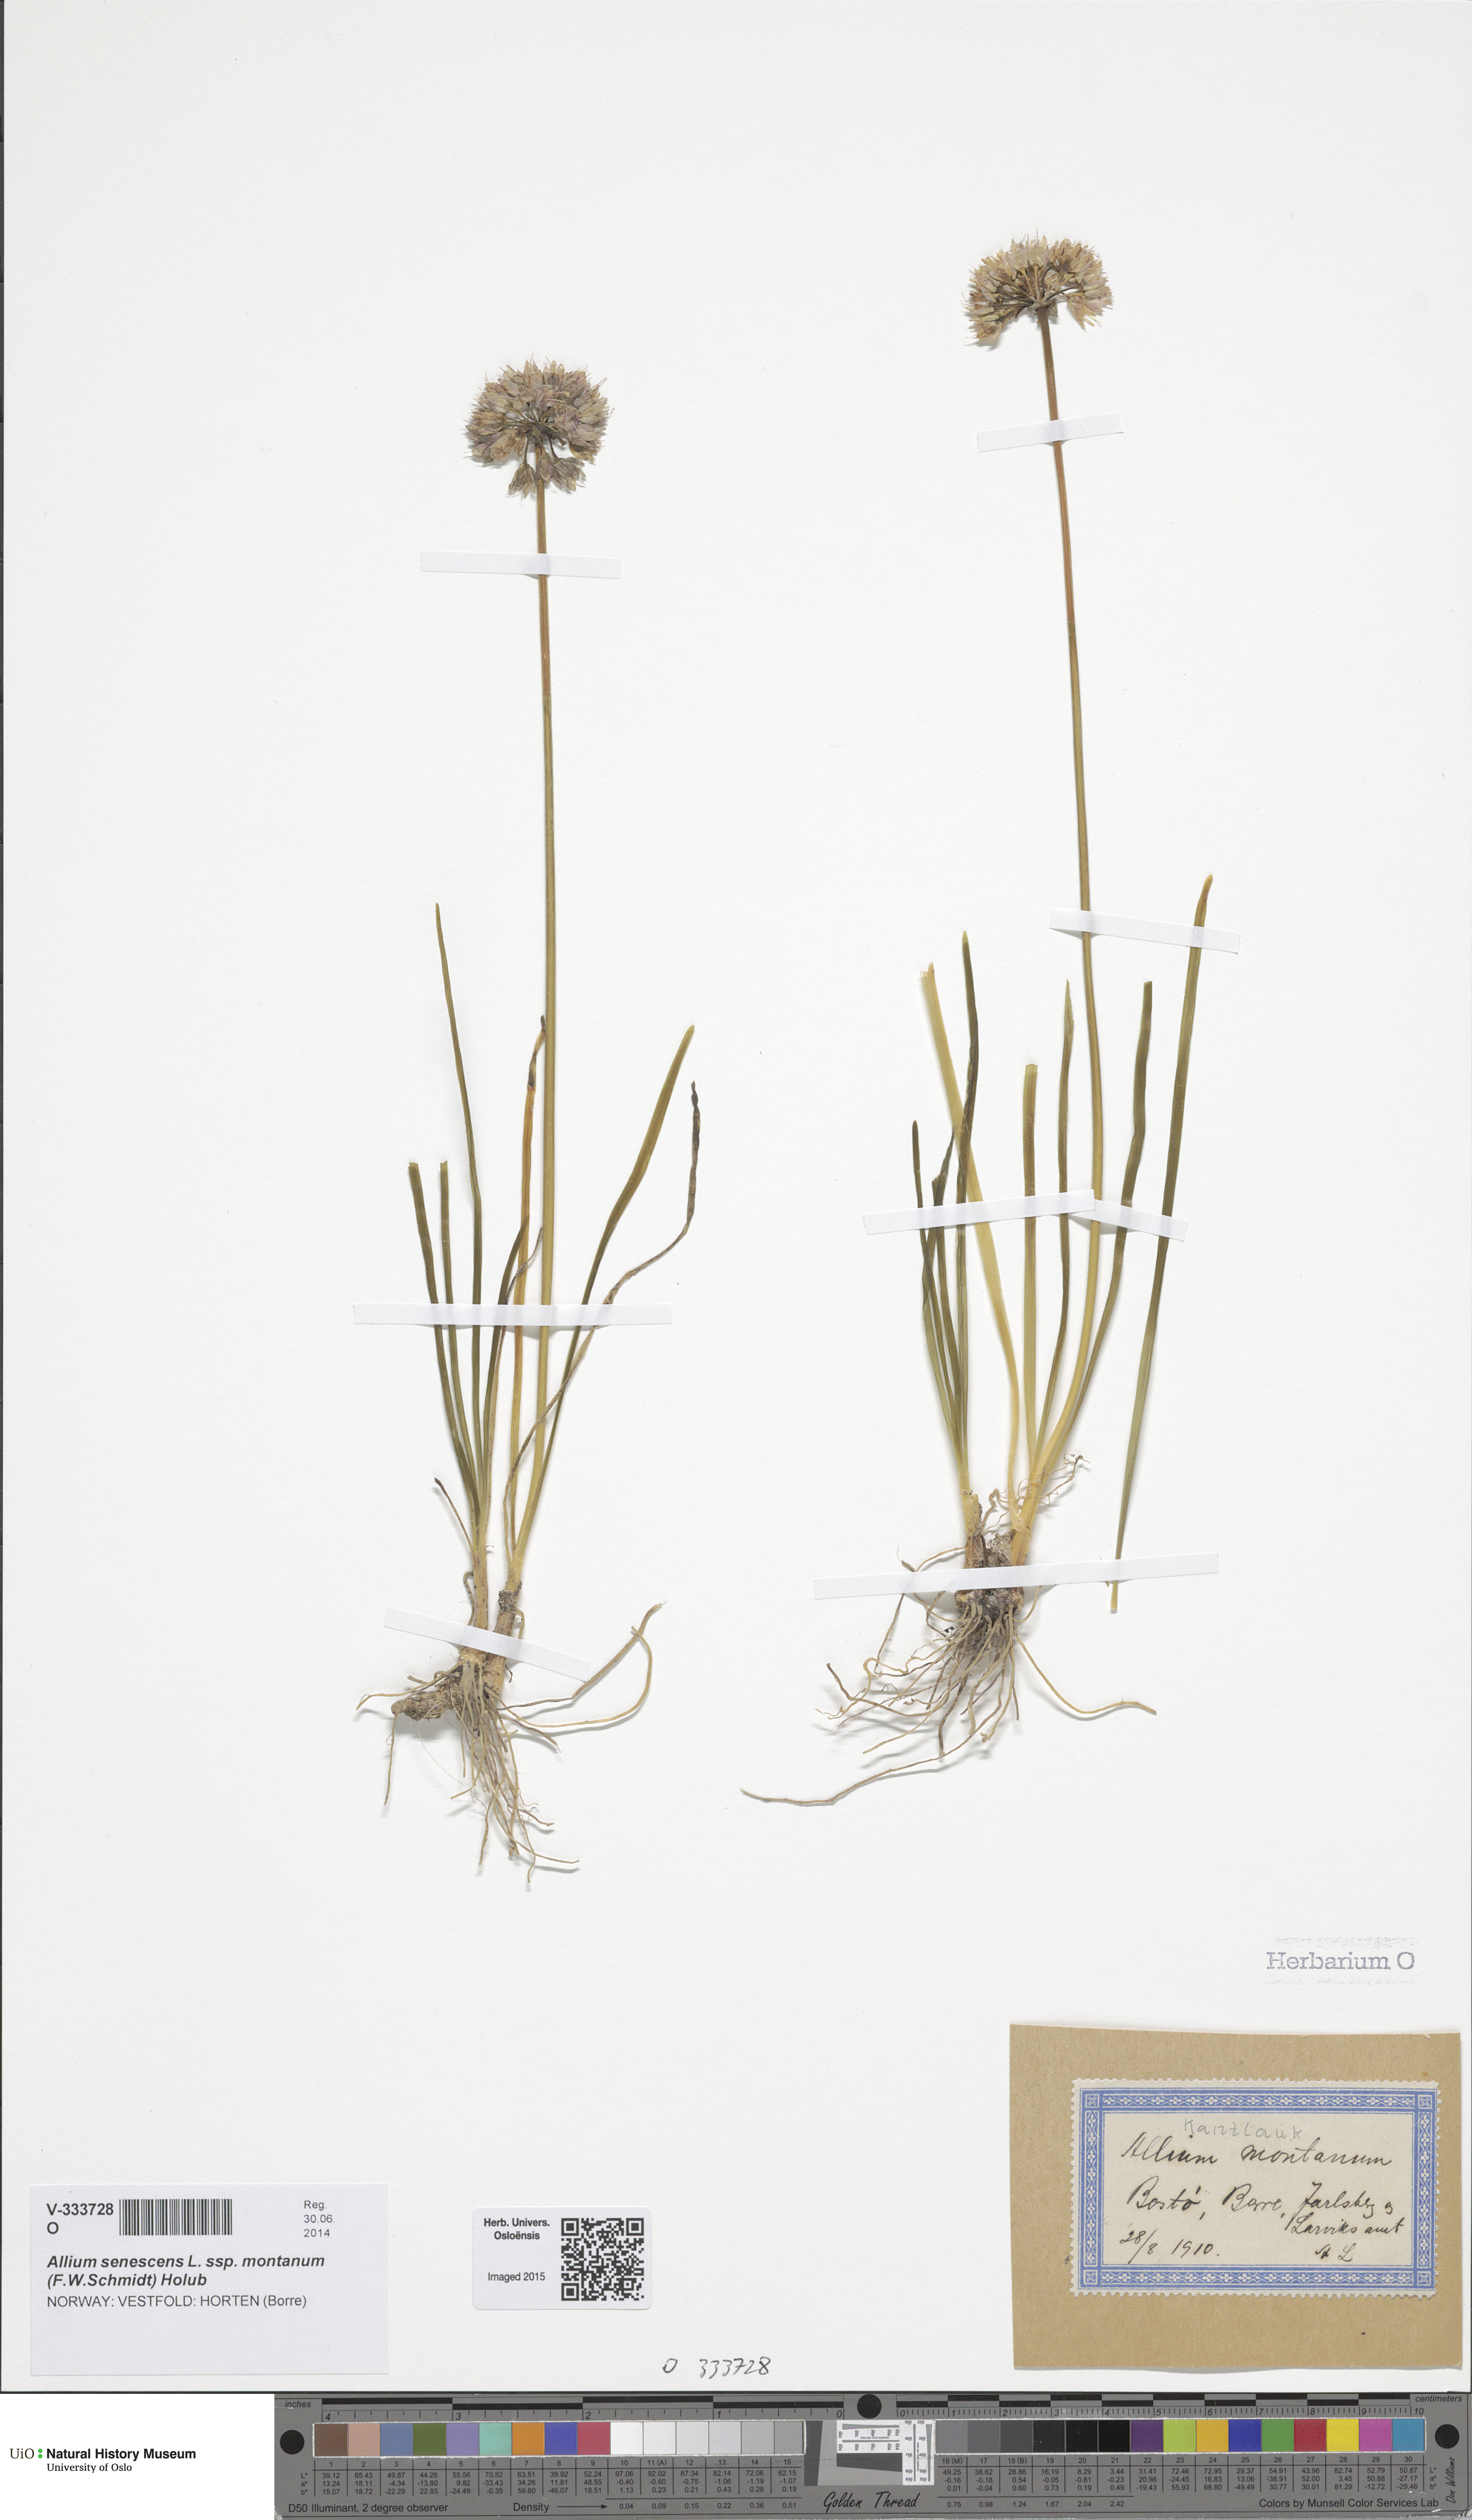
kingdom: Plantae
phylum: Tracheophyta
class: Liliopsida
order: Asparagales
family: Amaryllidaceae
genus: Allium
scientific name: Allium lusitanicum
